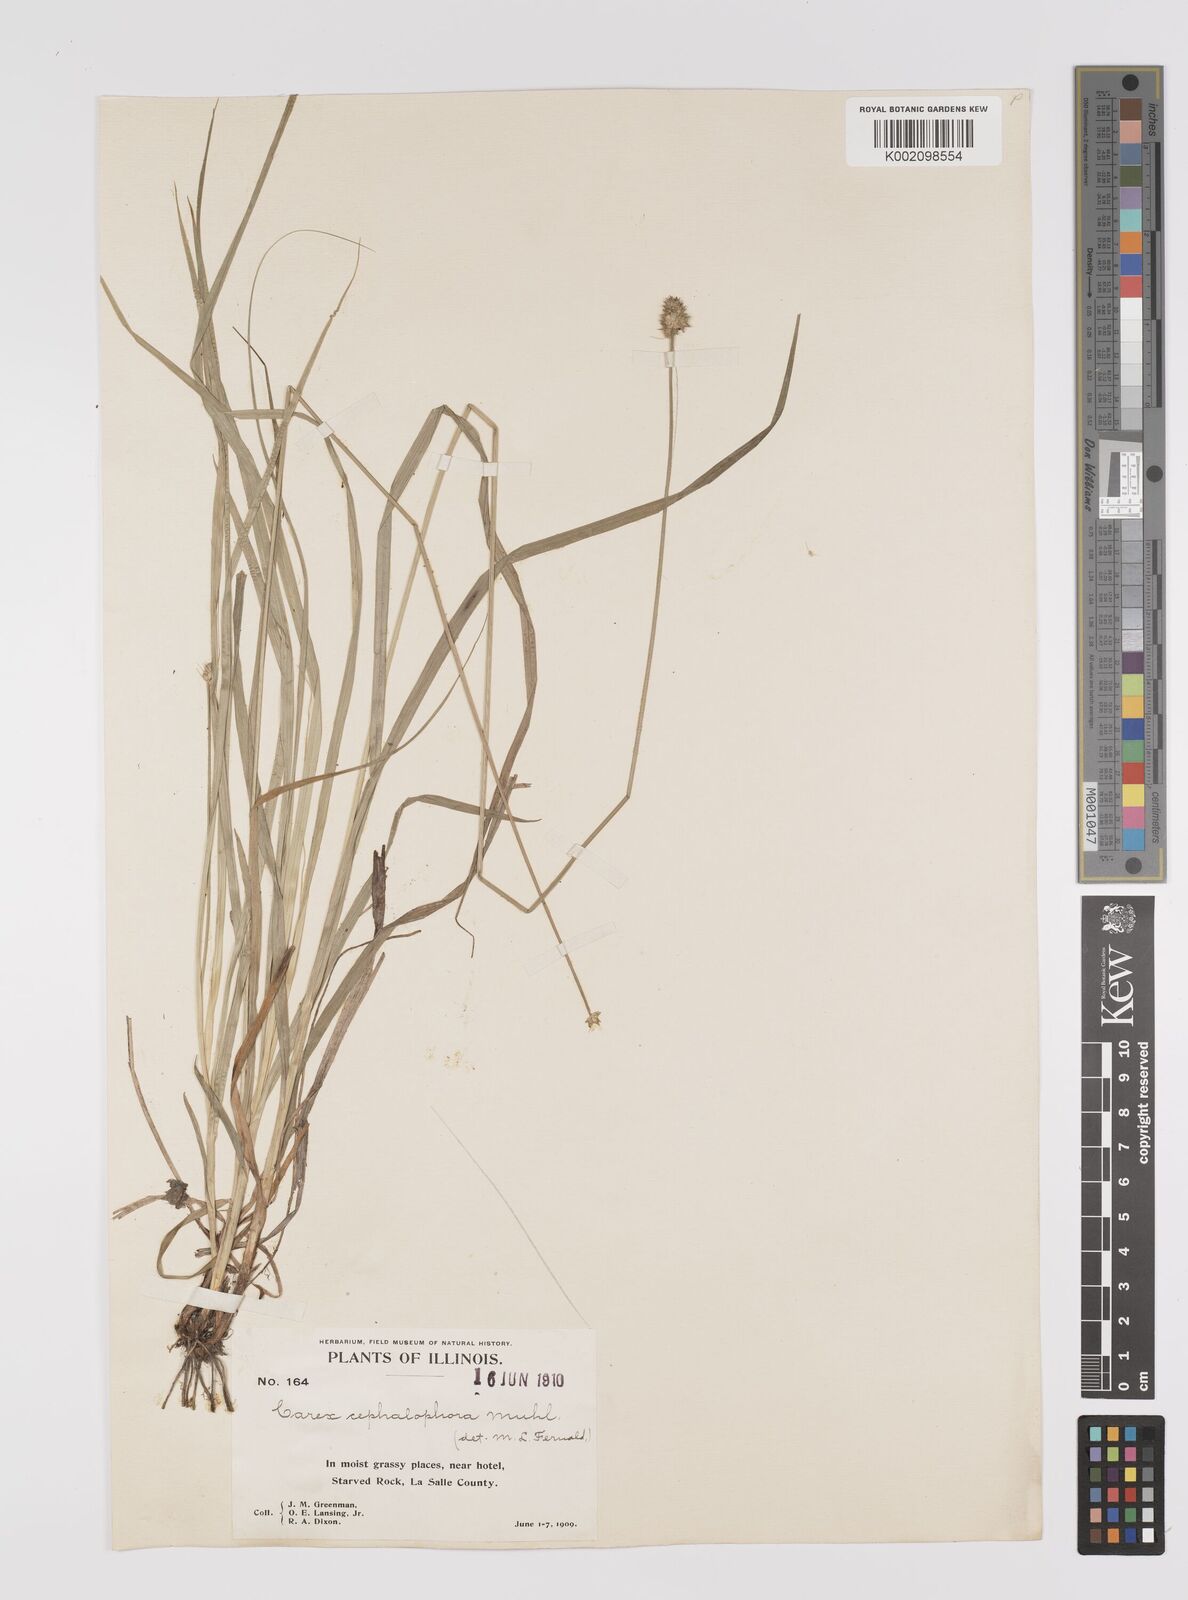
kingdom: Plantae
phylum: Tracheophyta
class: Liliopsida
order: Poales
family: Cyperaceae
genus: Carex
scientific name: Carex cephalophora
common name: Oval-headed sedge
